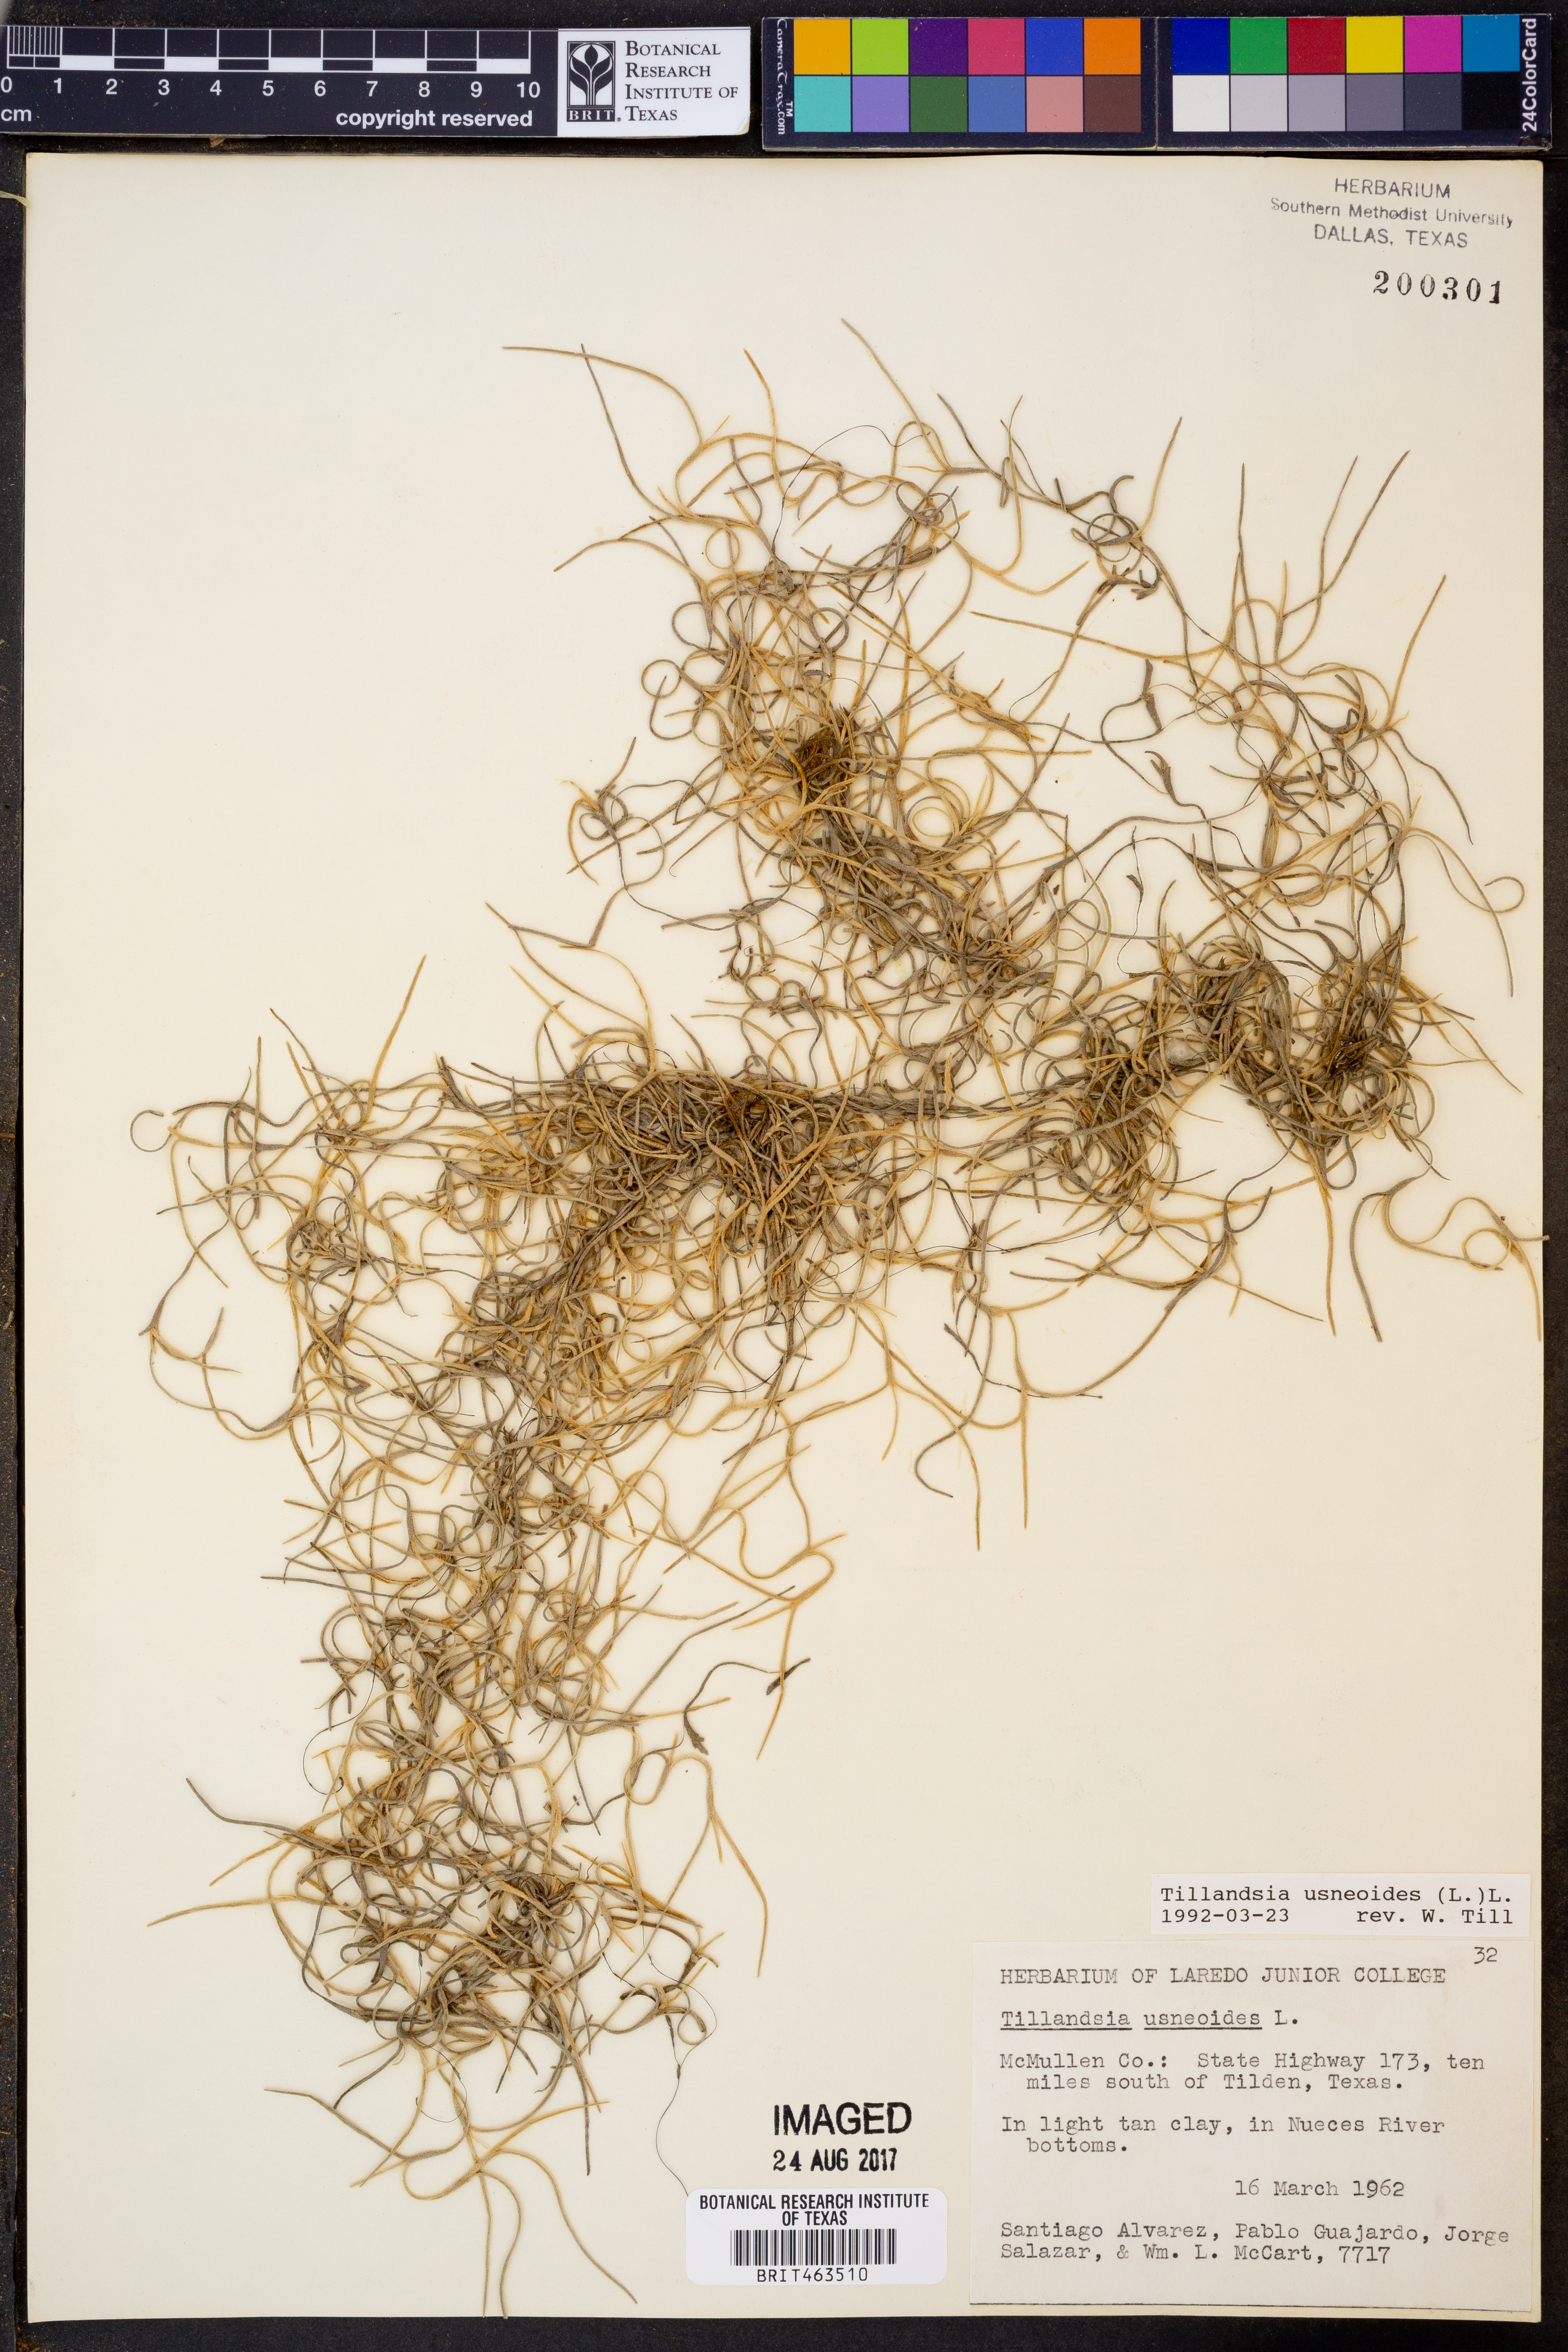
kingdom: Plantae
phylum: Tracheophyta
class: Liliopsida
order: Poales
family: Bromeliaceae
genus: Tillandsia
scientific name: Tillandsia usneoides
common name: Spanish moss
